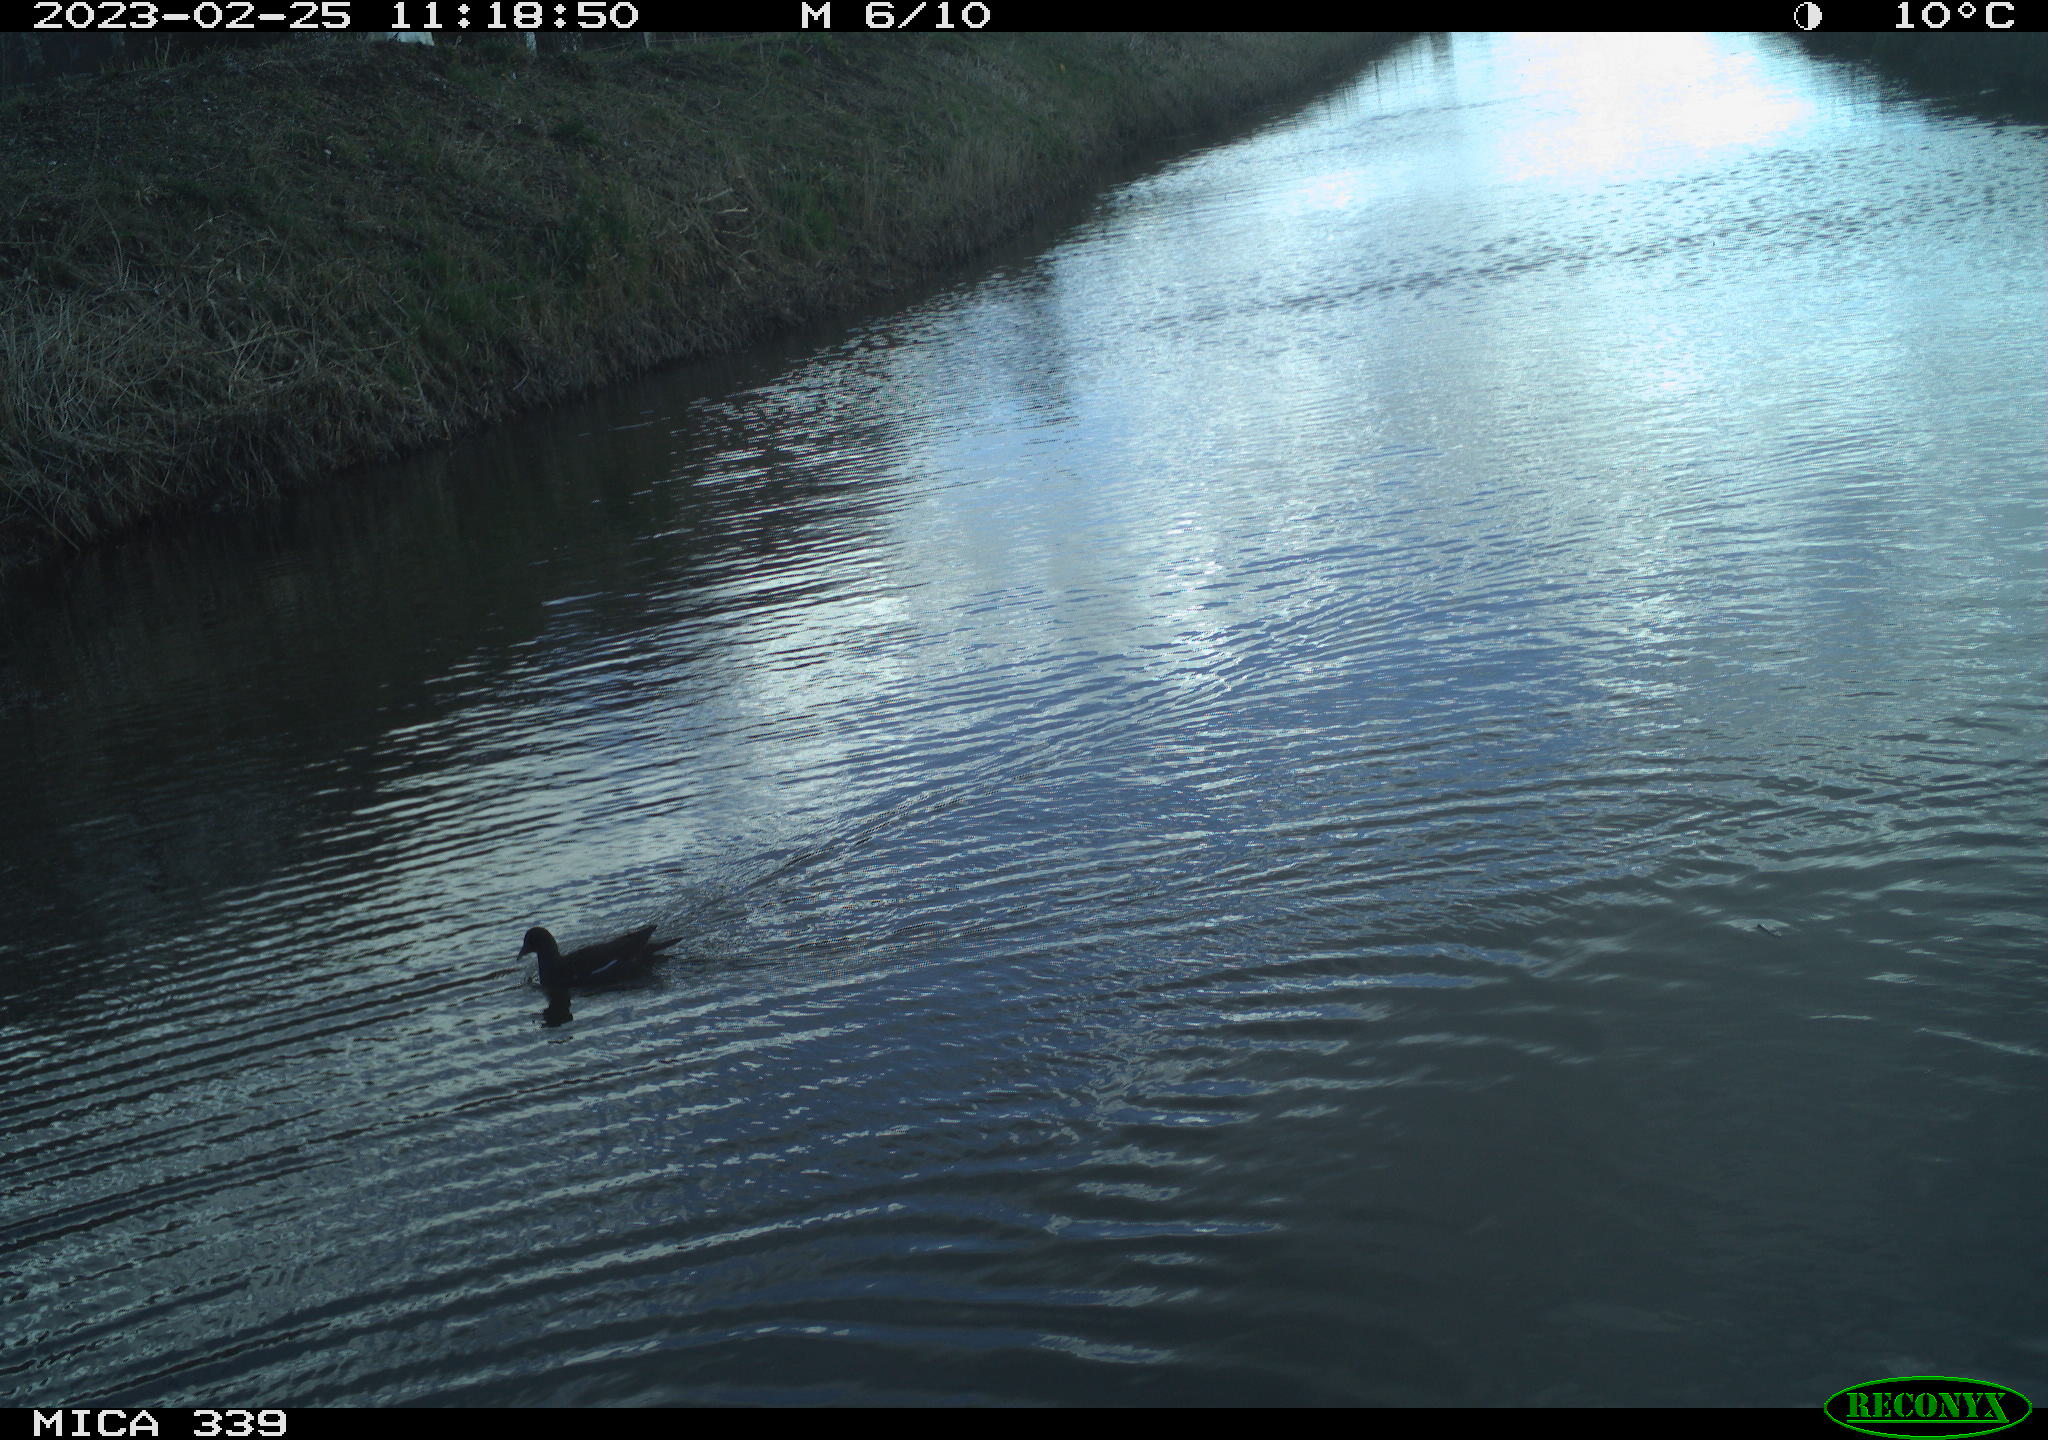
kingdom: Animalia
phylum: Chordata
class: Aves
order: Gruiformes
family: Rallidae
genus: Gallinula
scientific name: Gallinula chloropus
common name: Common moorhen
